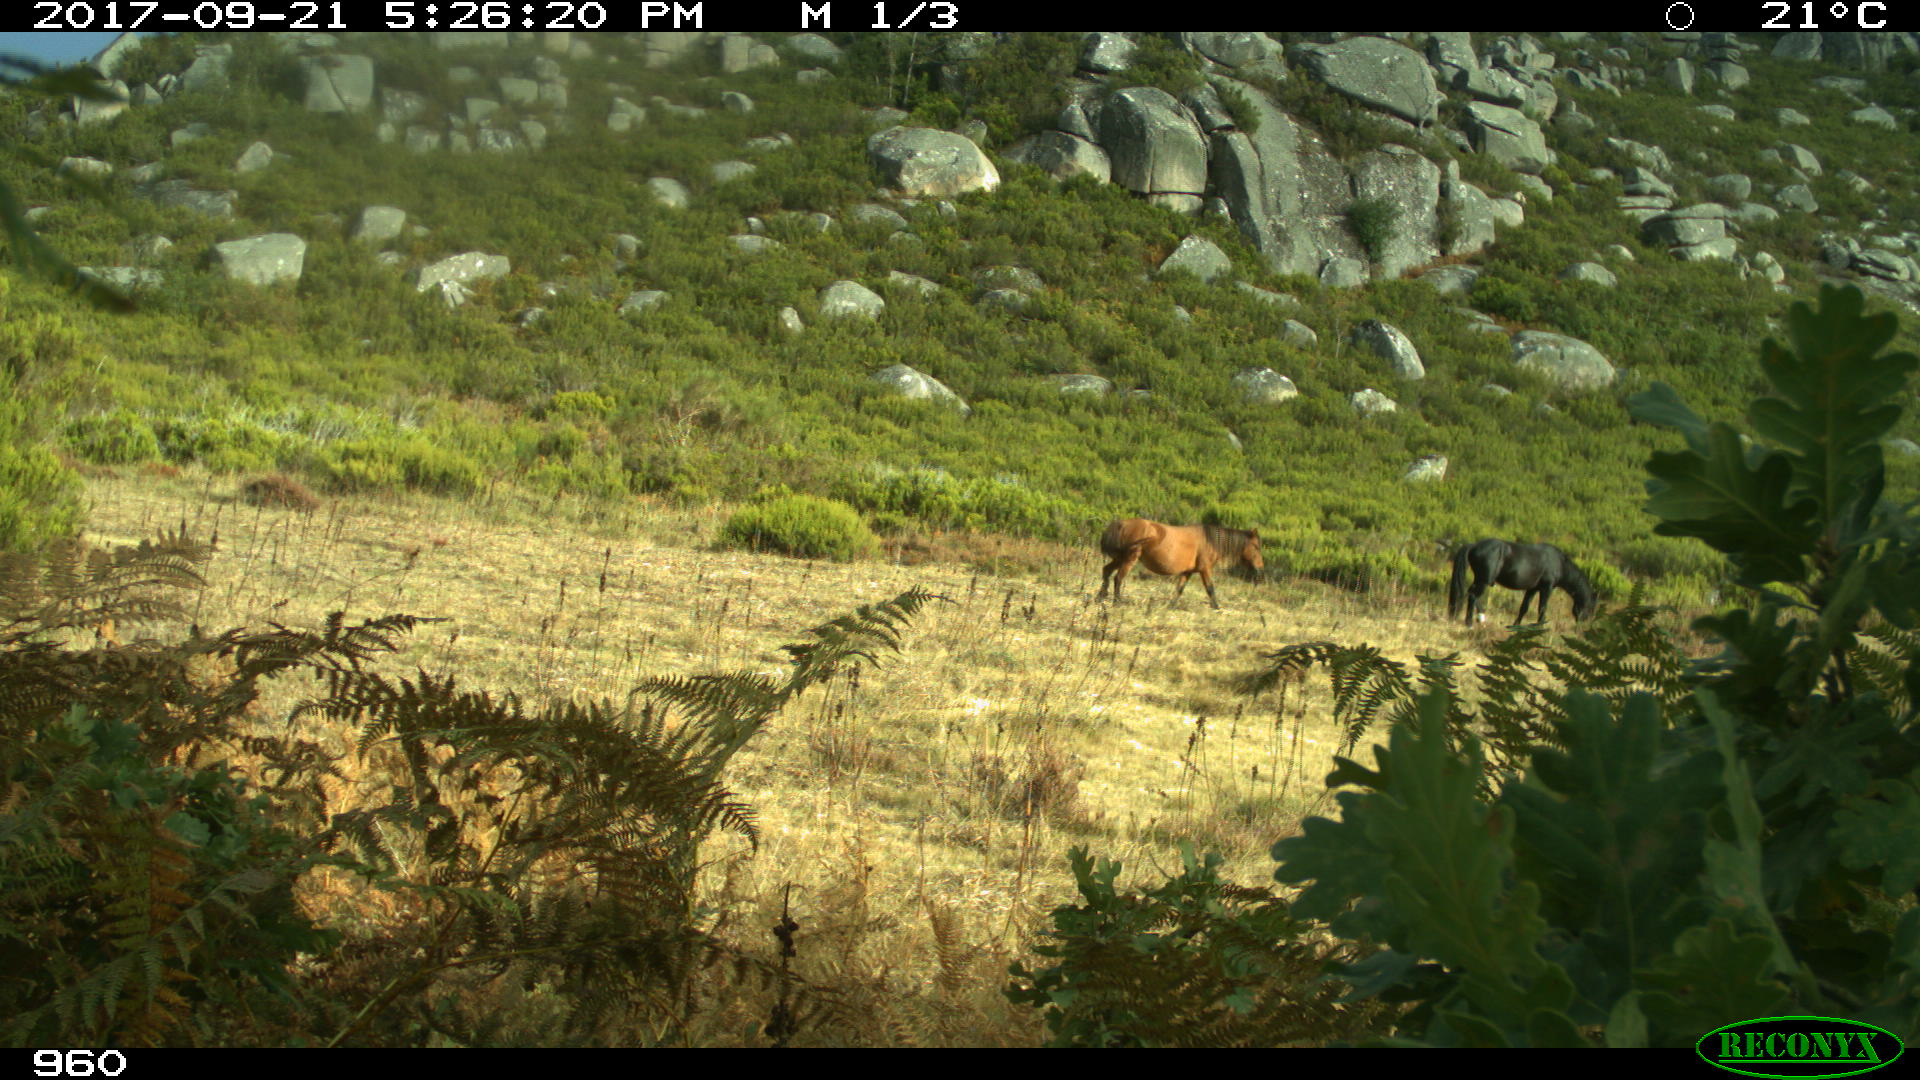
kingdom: Animalia
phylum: Chordata
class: Mammalia
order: Perissodactyla
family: Equidae
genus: Equus
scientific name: Equus caballus
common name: Horse
